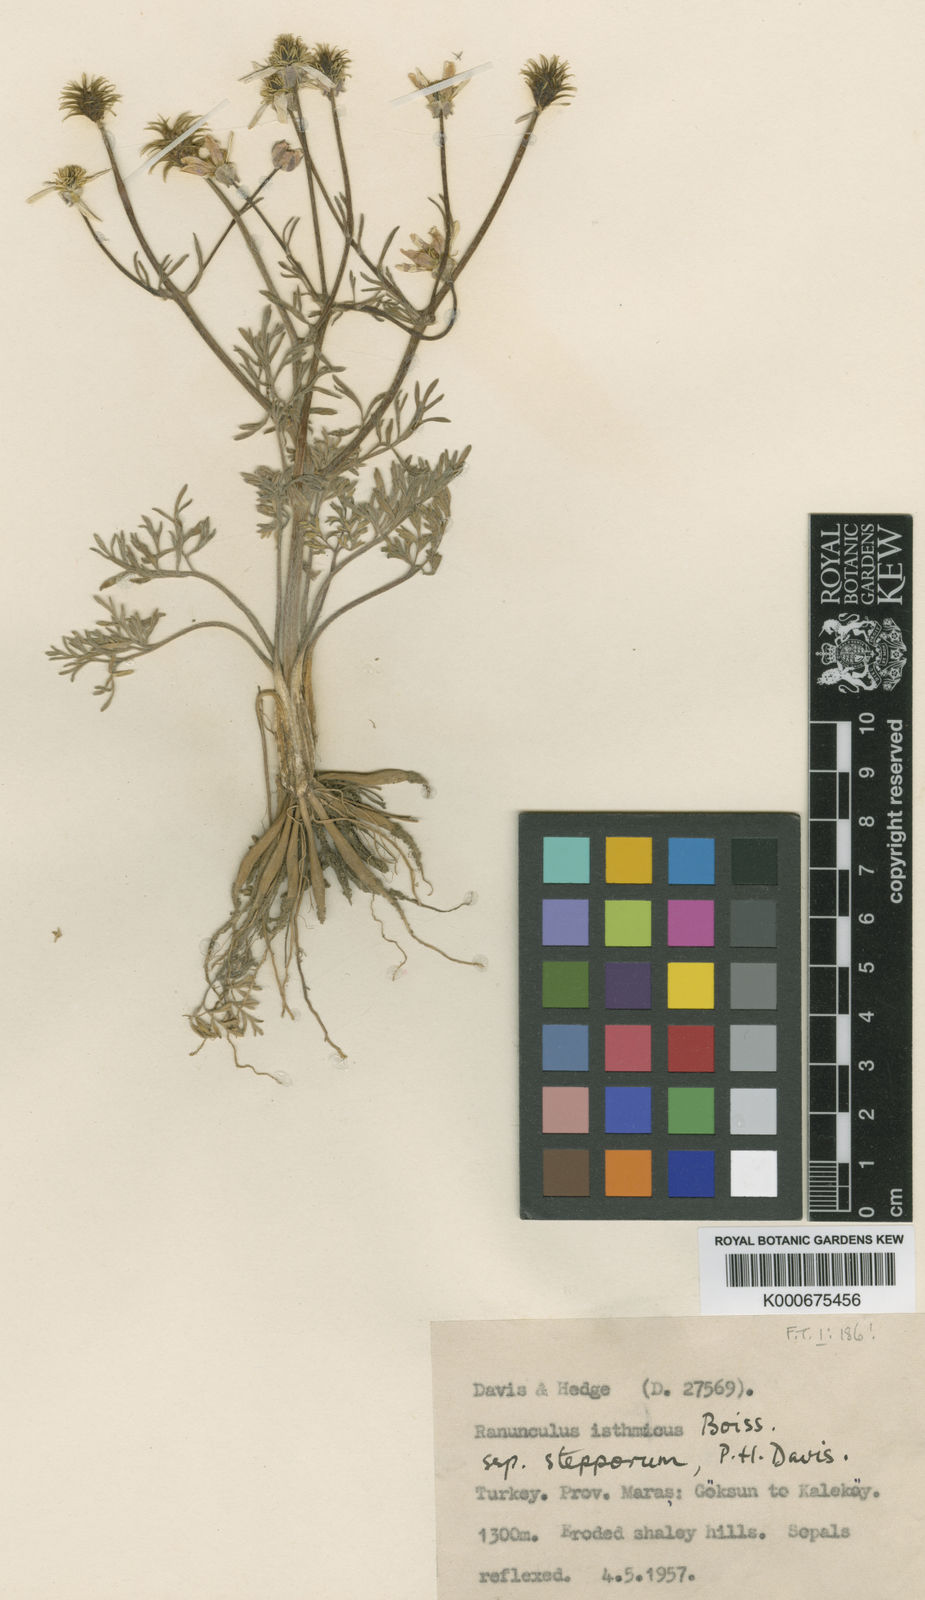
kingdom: Plantae
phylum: Tracheophyta
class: Magnoliopsida
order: Ranunculales
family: Ranunculaceae
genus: Ranunculus
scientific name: Ranunculus procumbens
